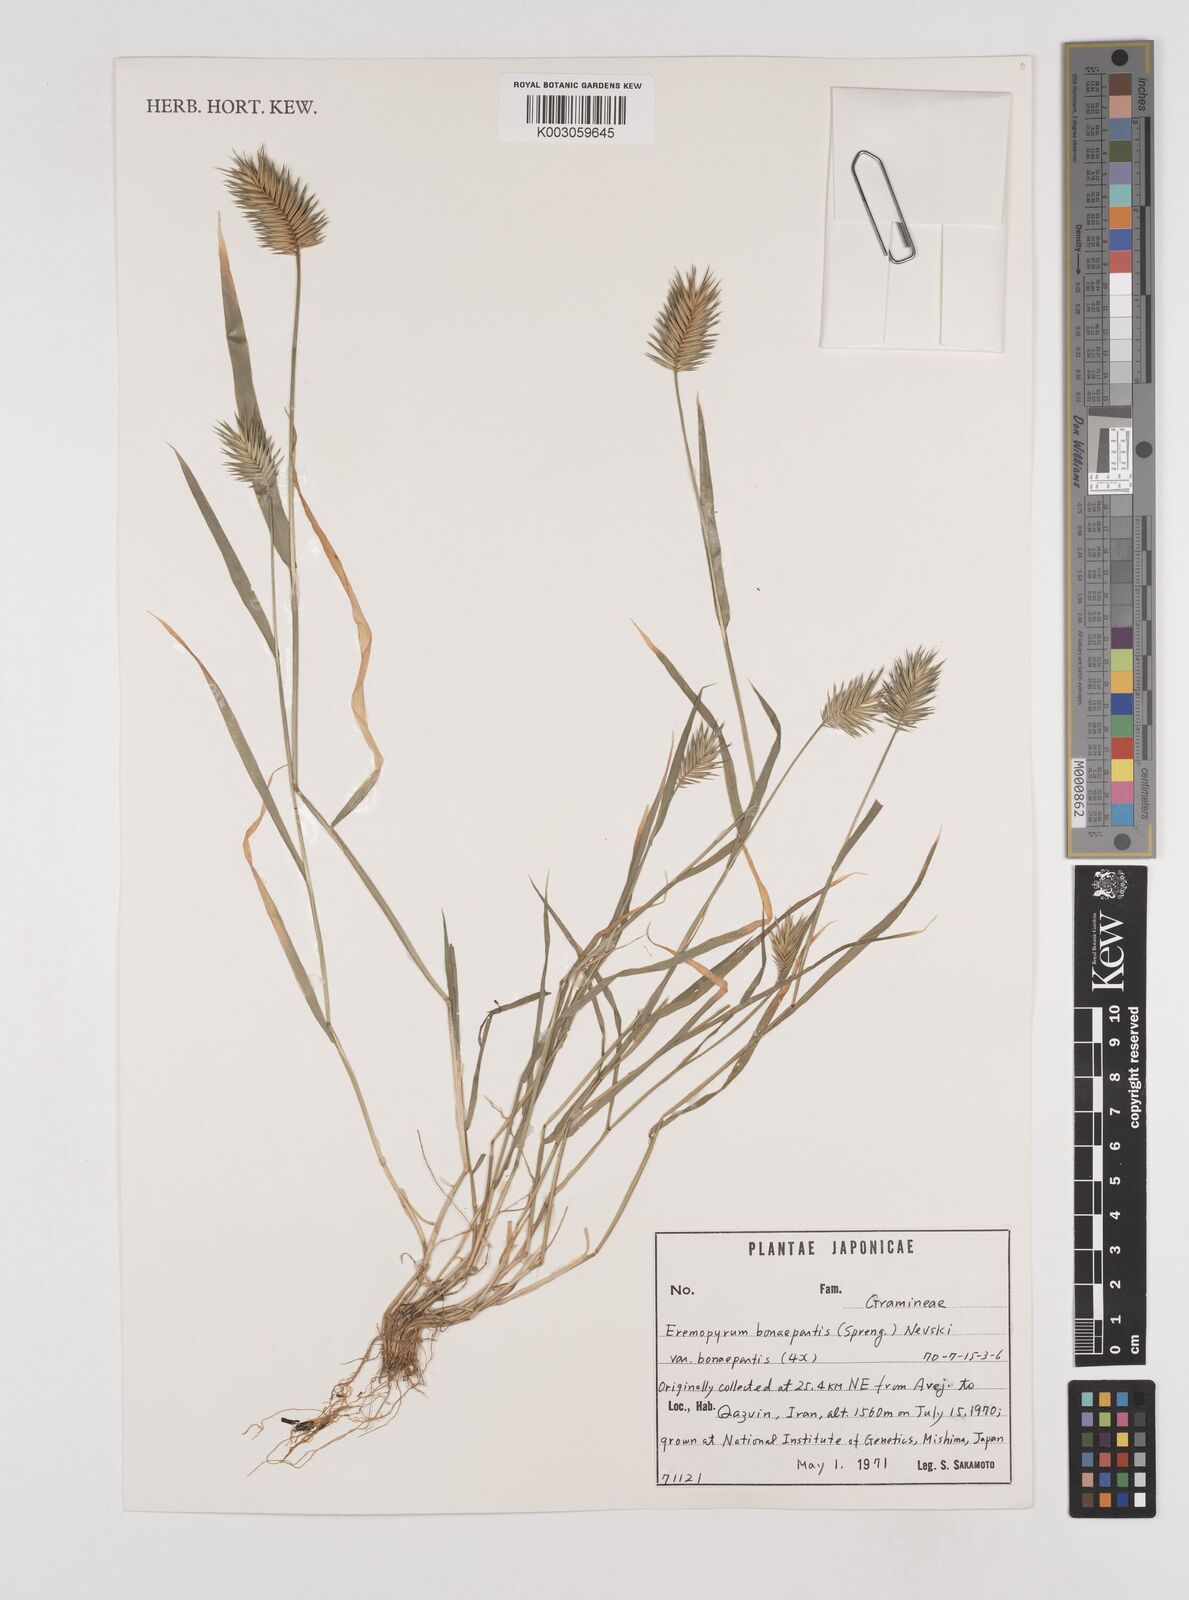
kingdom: Plantae
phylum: Tracheophyta
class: Liliopsida
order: Poales
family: Poaceae
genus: Eremopyrum
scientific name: Eremopyrum bonaepartis
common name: Tapertip false wheatgrass
